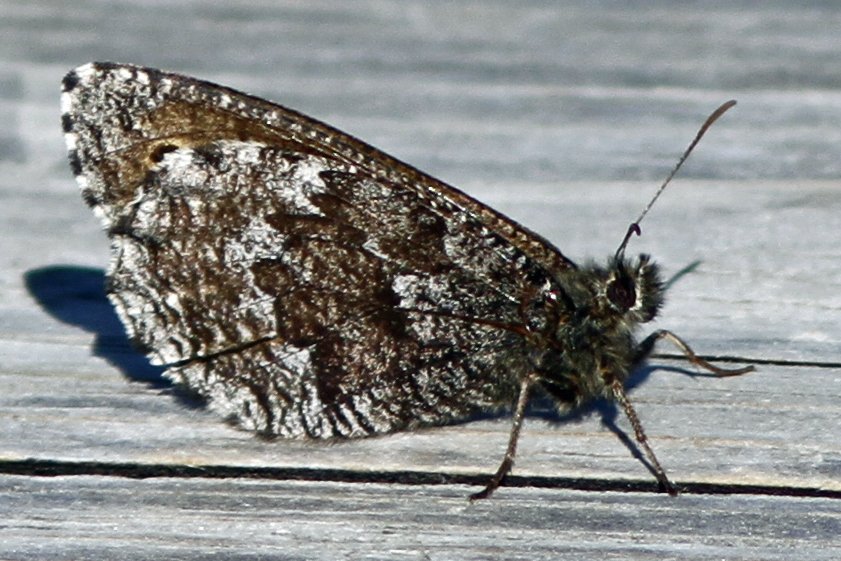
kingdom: Animalia
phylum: Arthropoda
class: Insecta
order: Lepidoptera
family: Nymphalidae
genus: Oeneis
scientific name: Oeneis jutta
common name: Jutta Arctic
